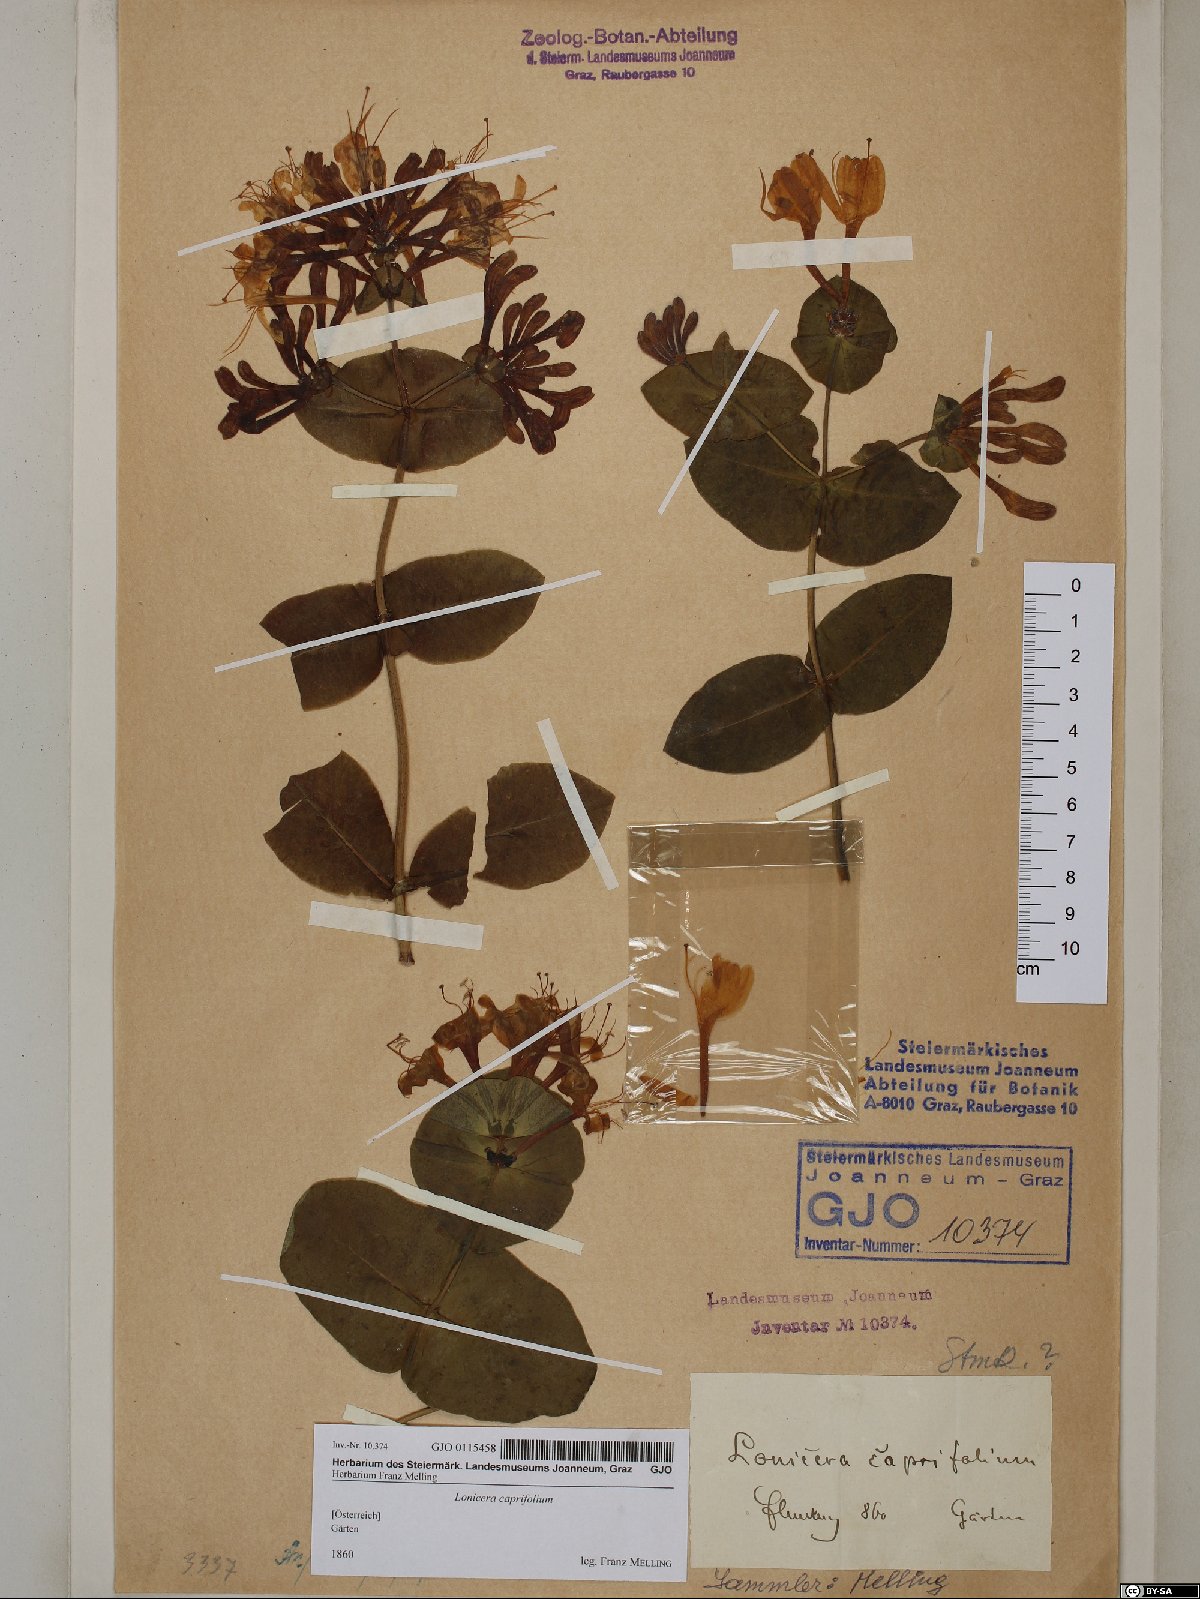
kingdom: Plantae
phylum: Tracheophyta
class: Magnoliopsida
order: Dipsacales
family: Caprifoliaceae
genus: Lonicera
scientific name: Lonicera caprifolium
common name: Perfoliate honeysuckle
